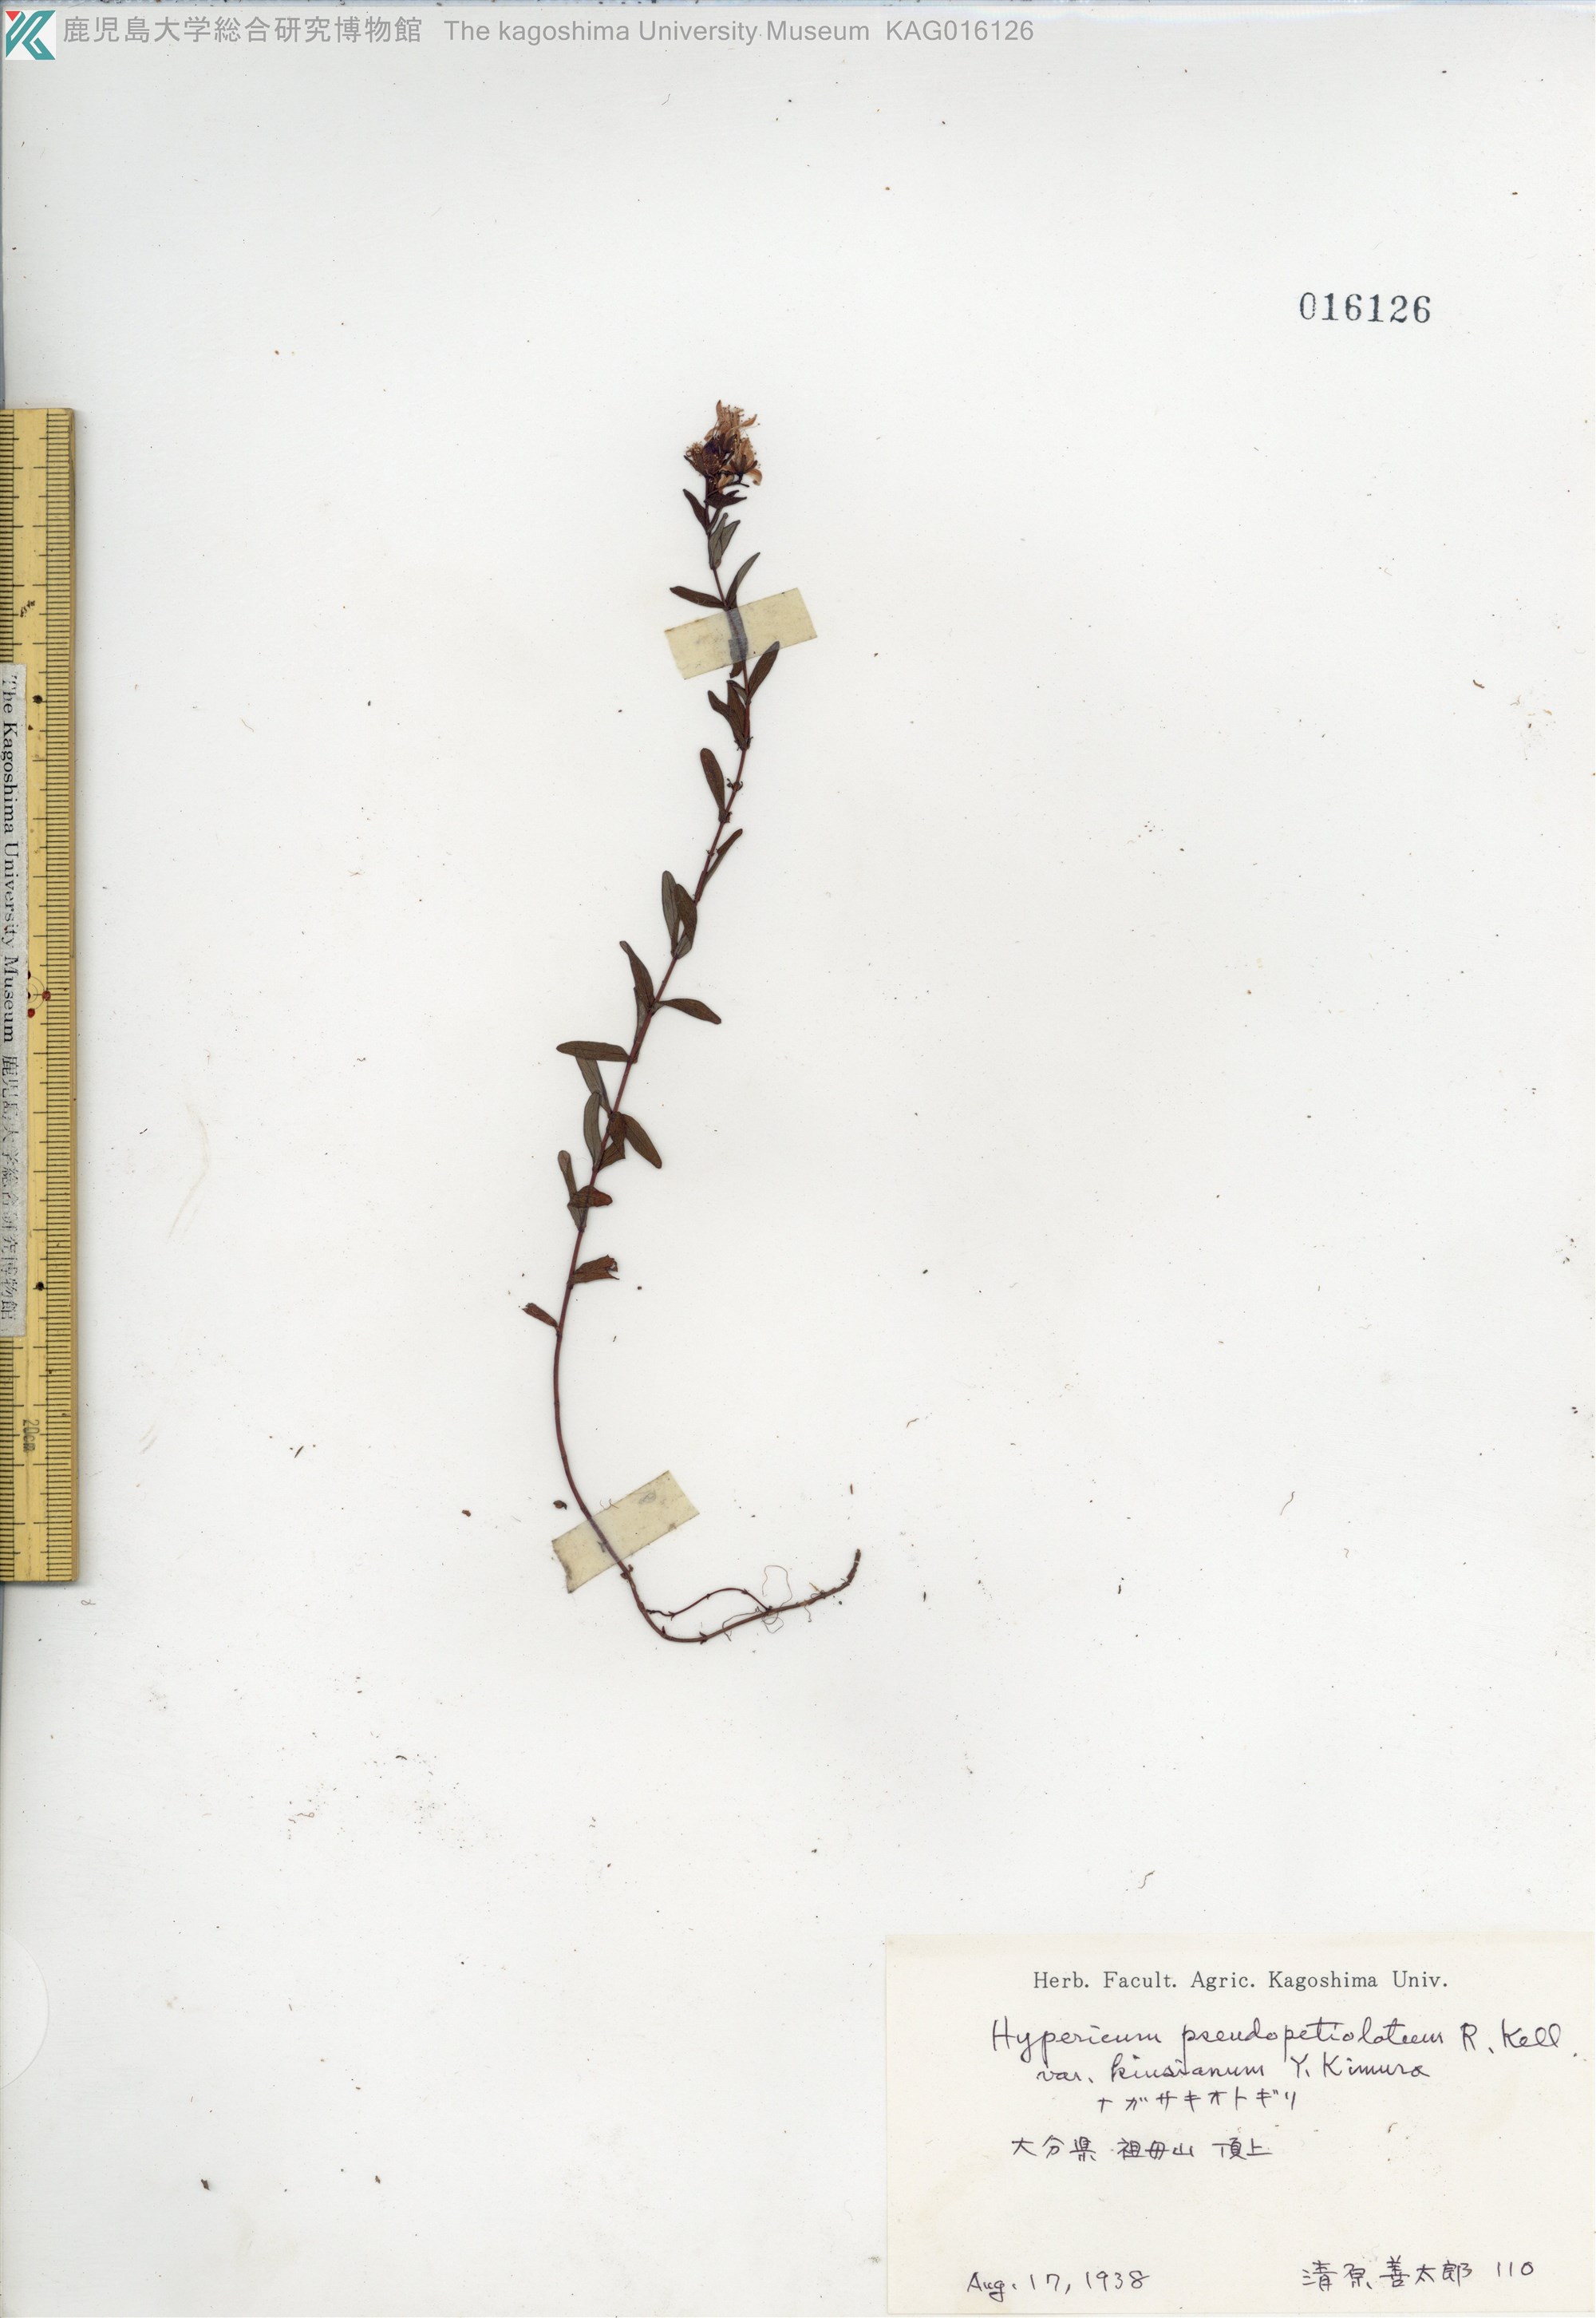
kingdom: Plantae
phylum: Tracheophyta
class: Magnoliopsida
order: Malpighiales
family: Hypericaceae
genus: Hypericum
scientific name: Hypericum pseudopetiolatum
